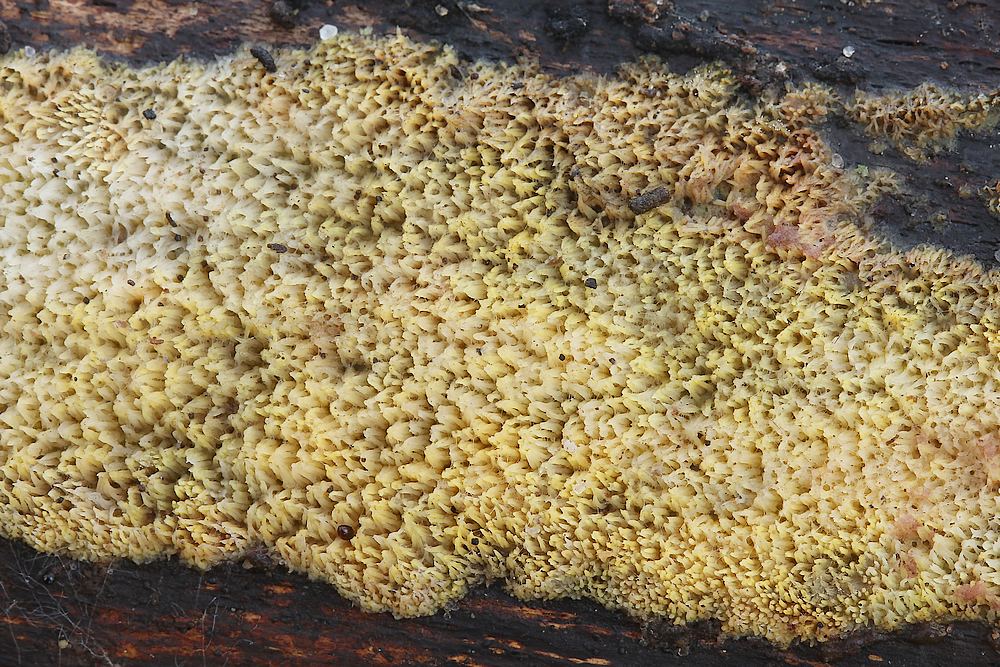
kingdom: Fungi
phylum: Basidiomycota
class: Agaricomycetes
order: Polyporales
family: Meruliaceae
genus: Mycoacia
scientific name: Mycoacia uda
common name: citrongul vokspig
